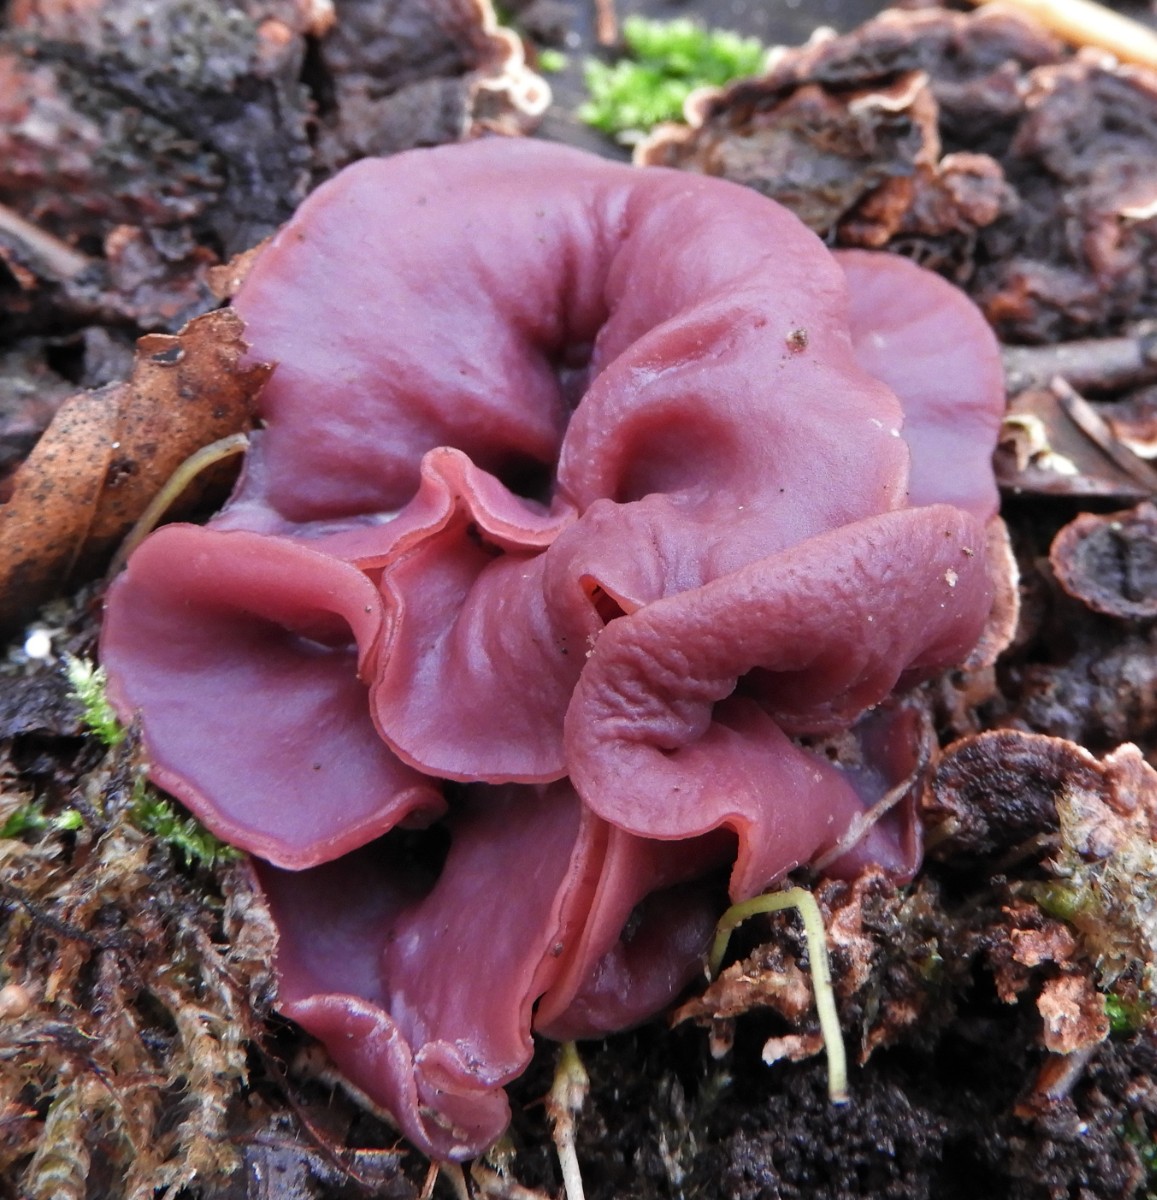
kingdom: Fungi
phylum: Ascomycota
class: Leotiomycetes
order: Helotiales
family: Gelatinodiscaceae
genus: Ascocoryne
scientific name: Ascocoryne cylichnium
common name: stor sejskive
